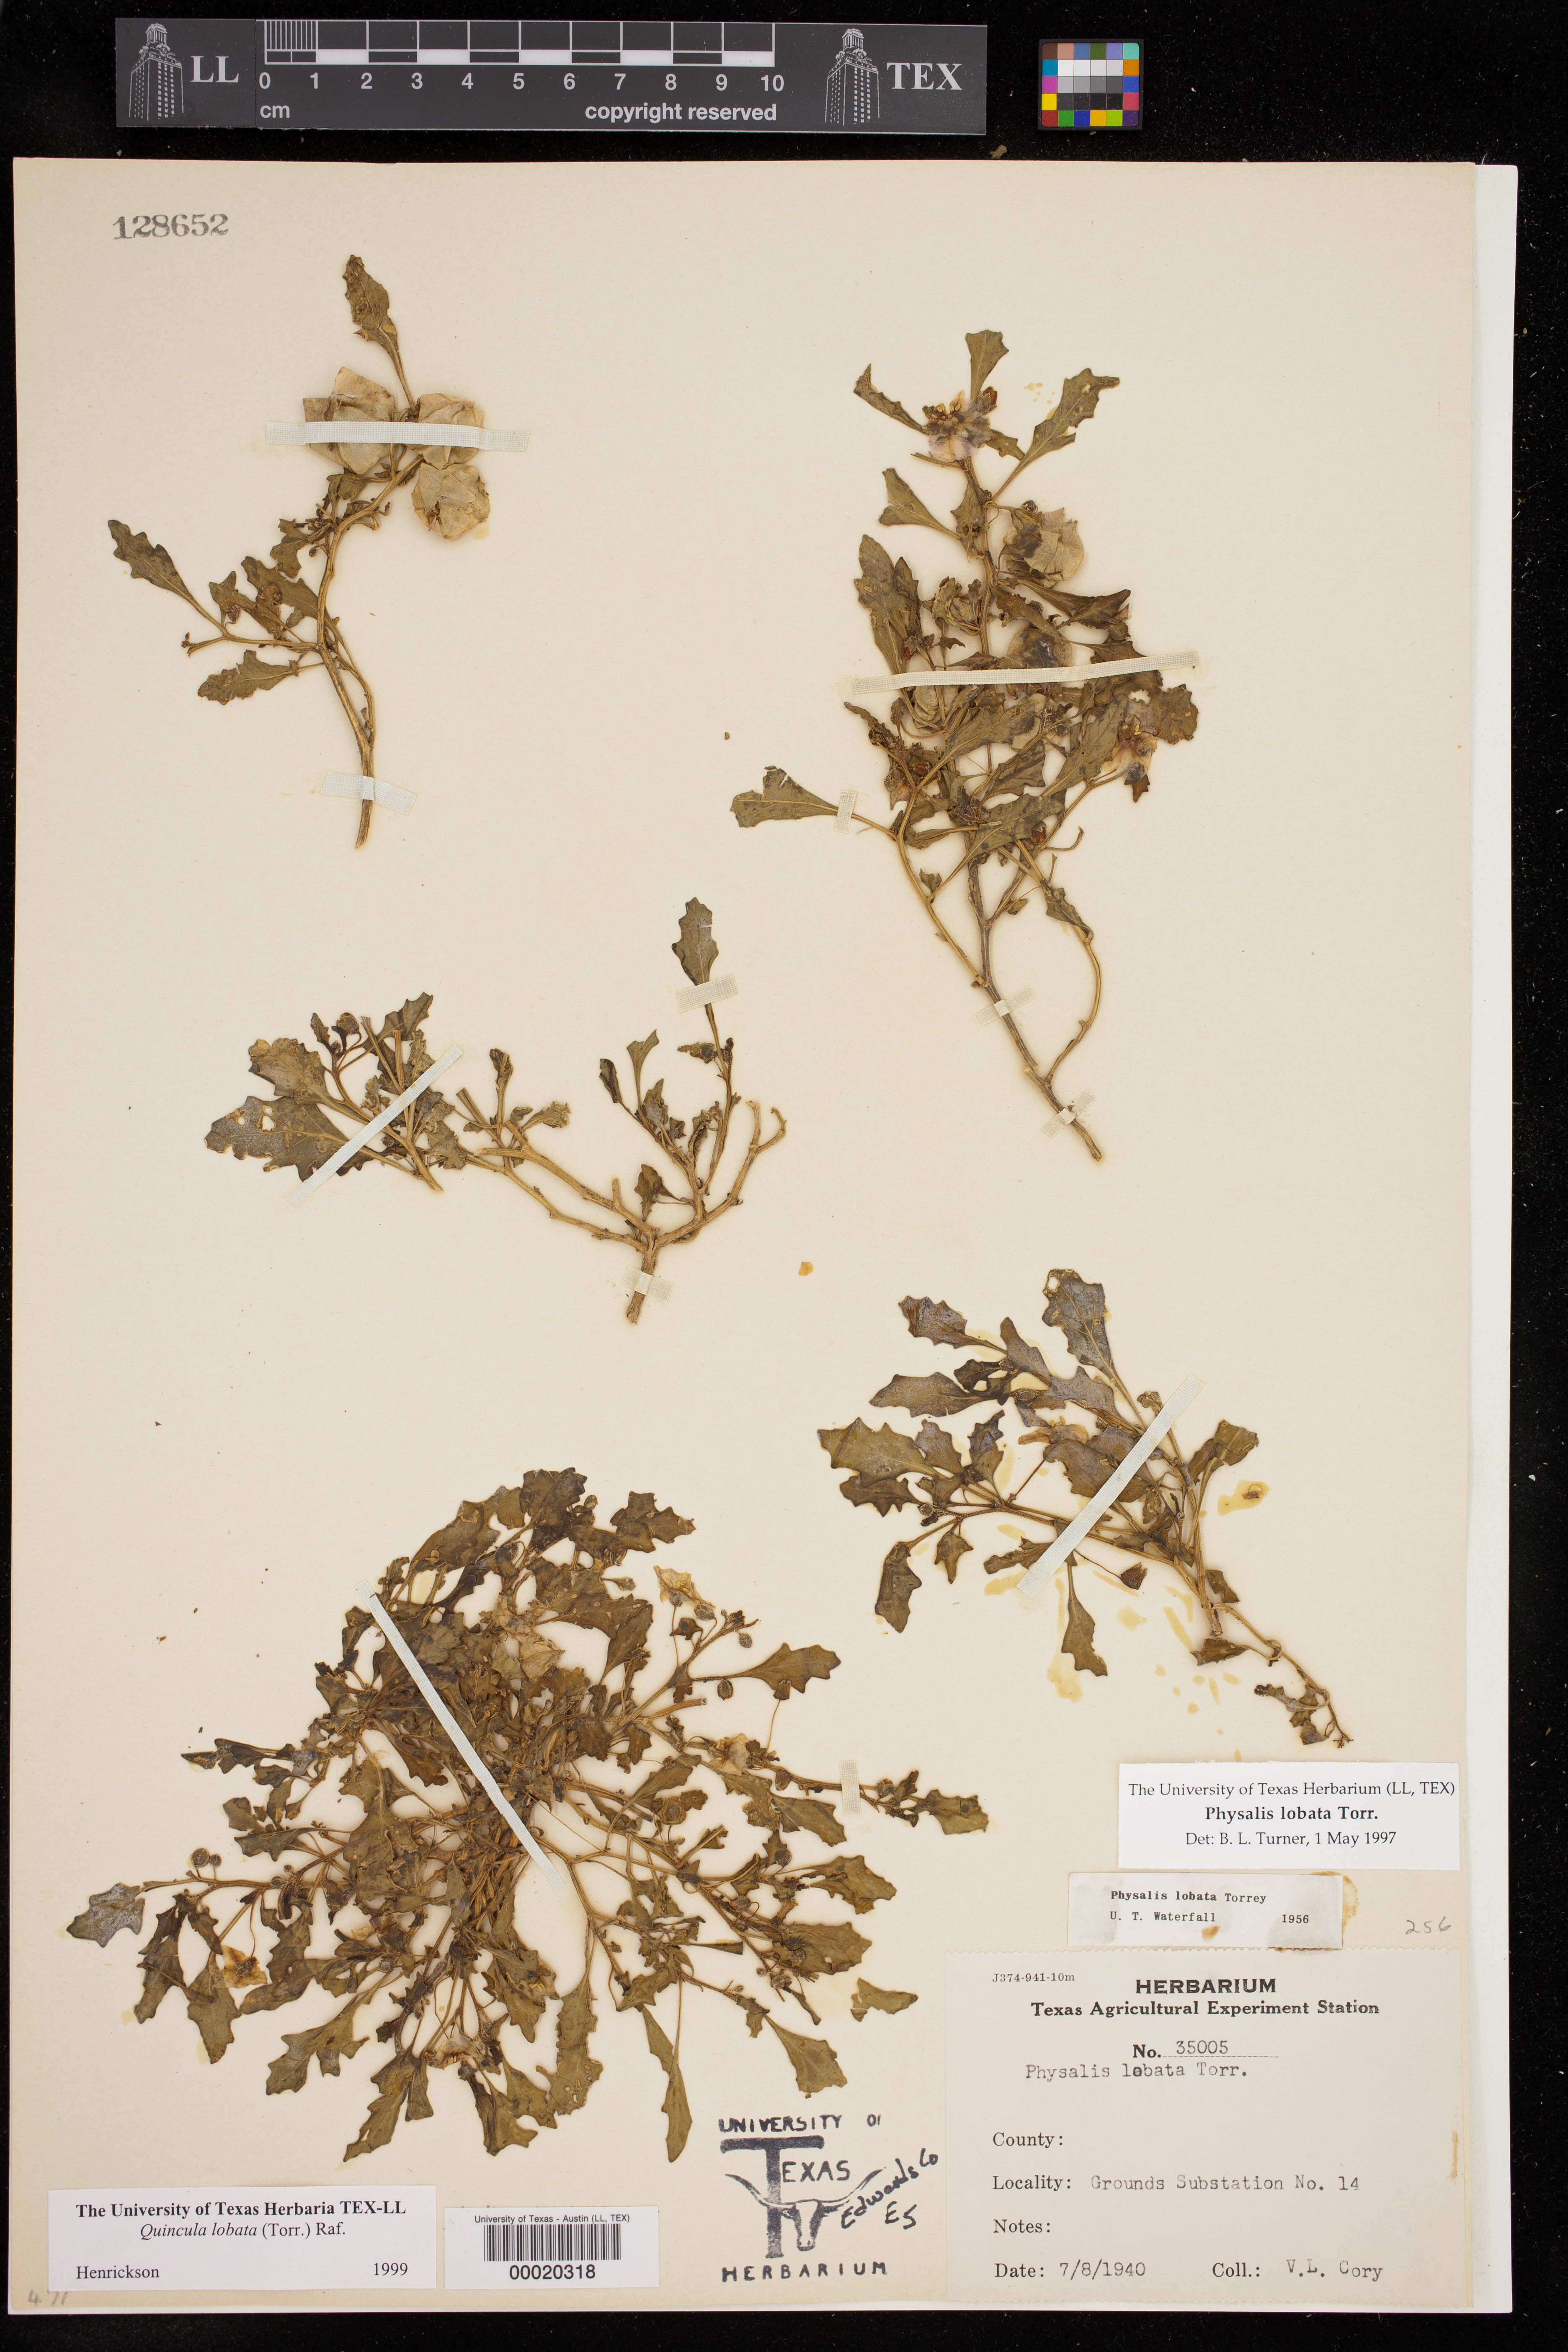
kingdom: Plantae
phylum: Tracheophyta
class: Magnoliopsida
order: Solanales
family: Solanaceae
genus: Quincula
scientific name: Quincula lobata
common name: Purple-ground-cherry
